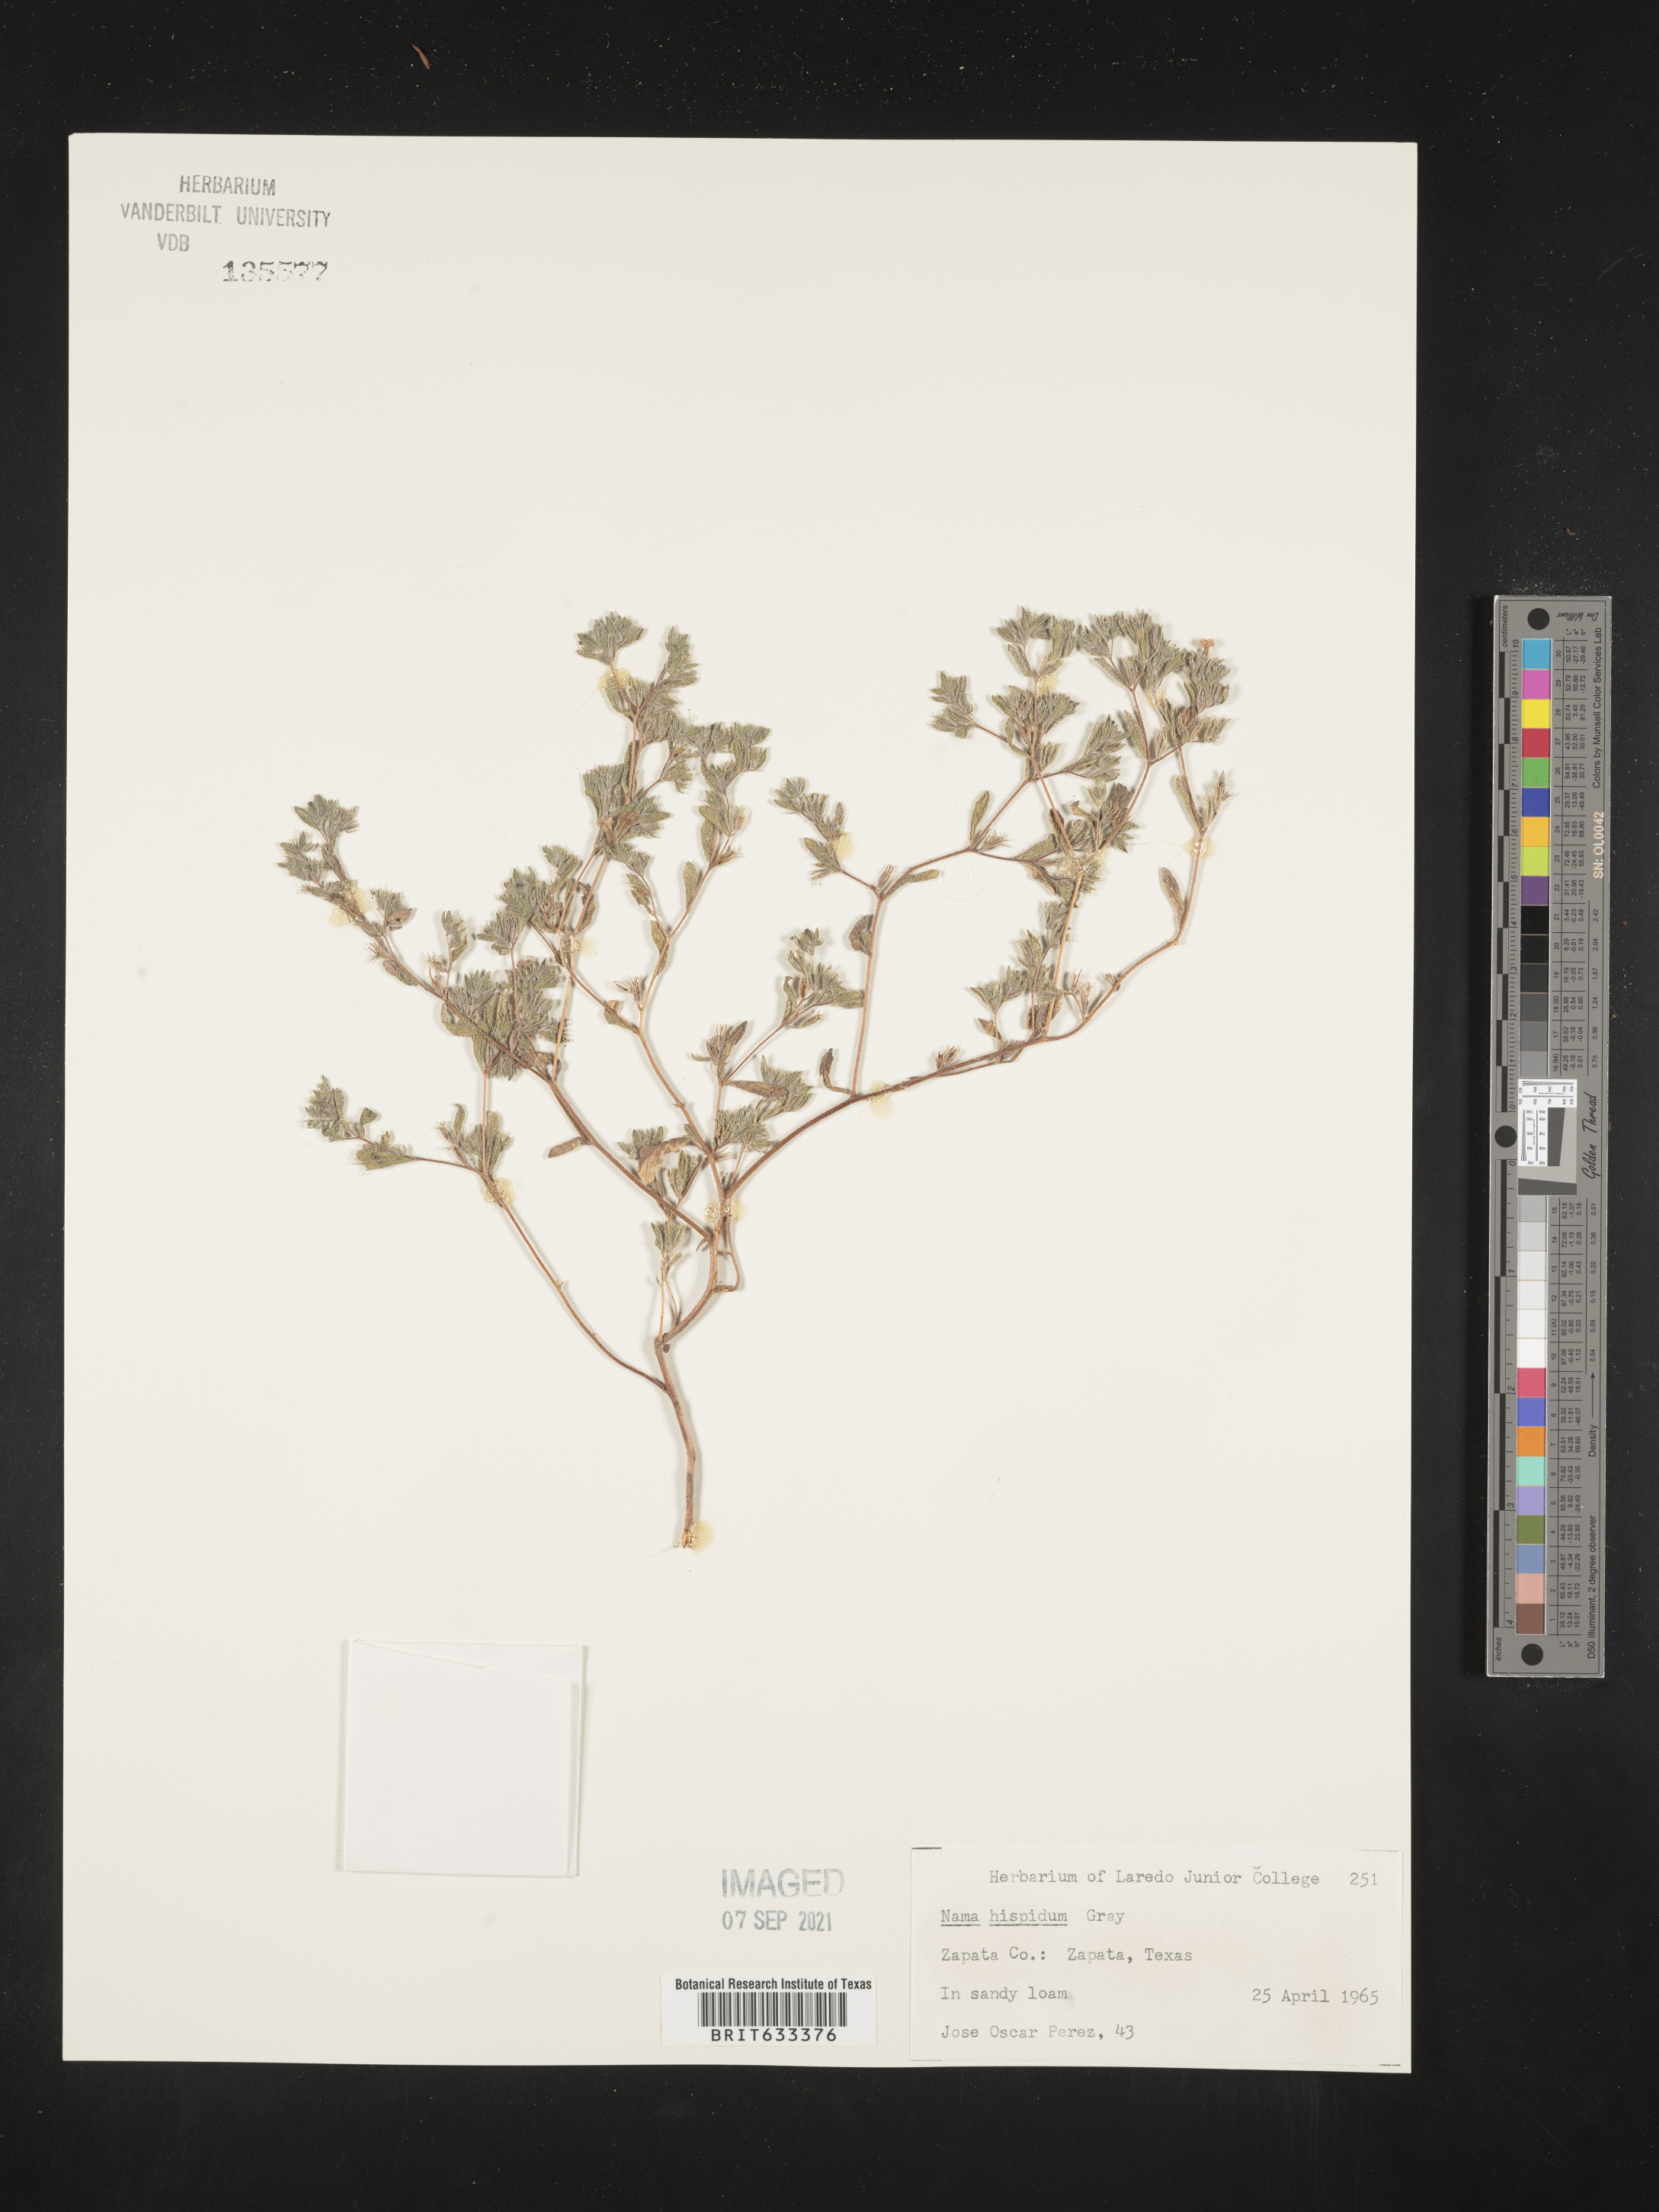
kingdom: Plantae
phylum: Tracheophyta
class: Magnoliopsida
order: Boraginales
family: Namaceae
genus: Nama
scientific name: Nama hispida
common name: Bristly nama
